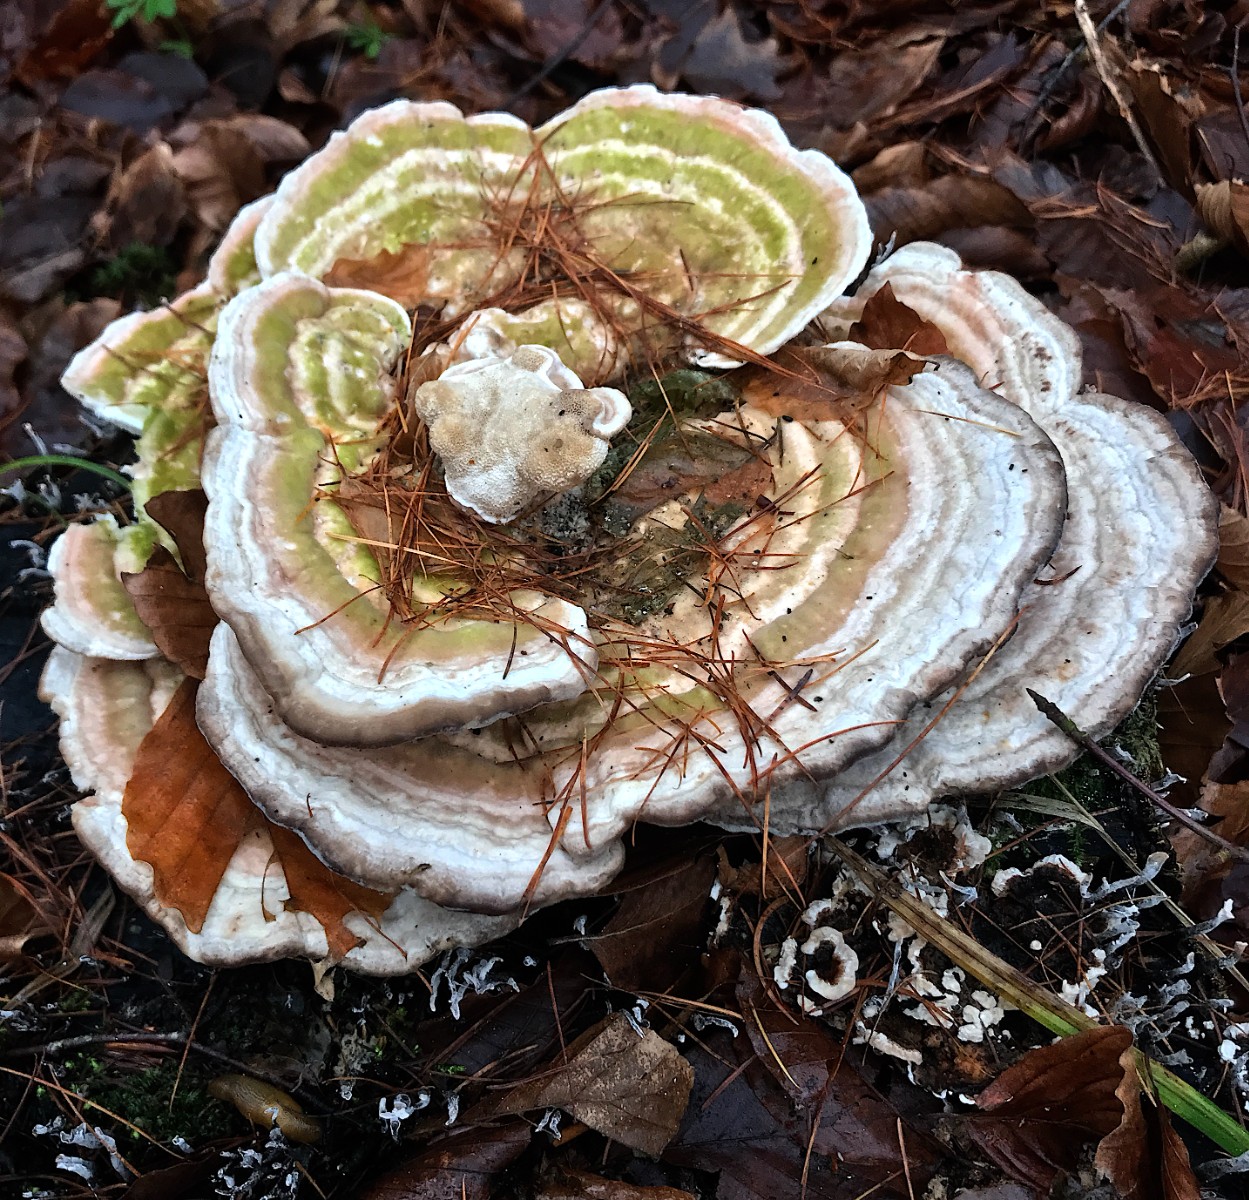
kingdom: Fungi
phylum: Basidiomycota
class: Agaricomycetes
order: Polyporales
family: Polyporaceae
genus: Trametes
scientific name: Trametes gibbosa
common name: puklet læderporesvamp
